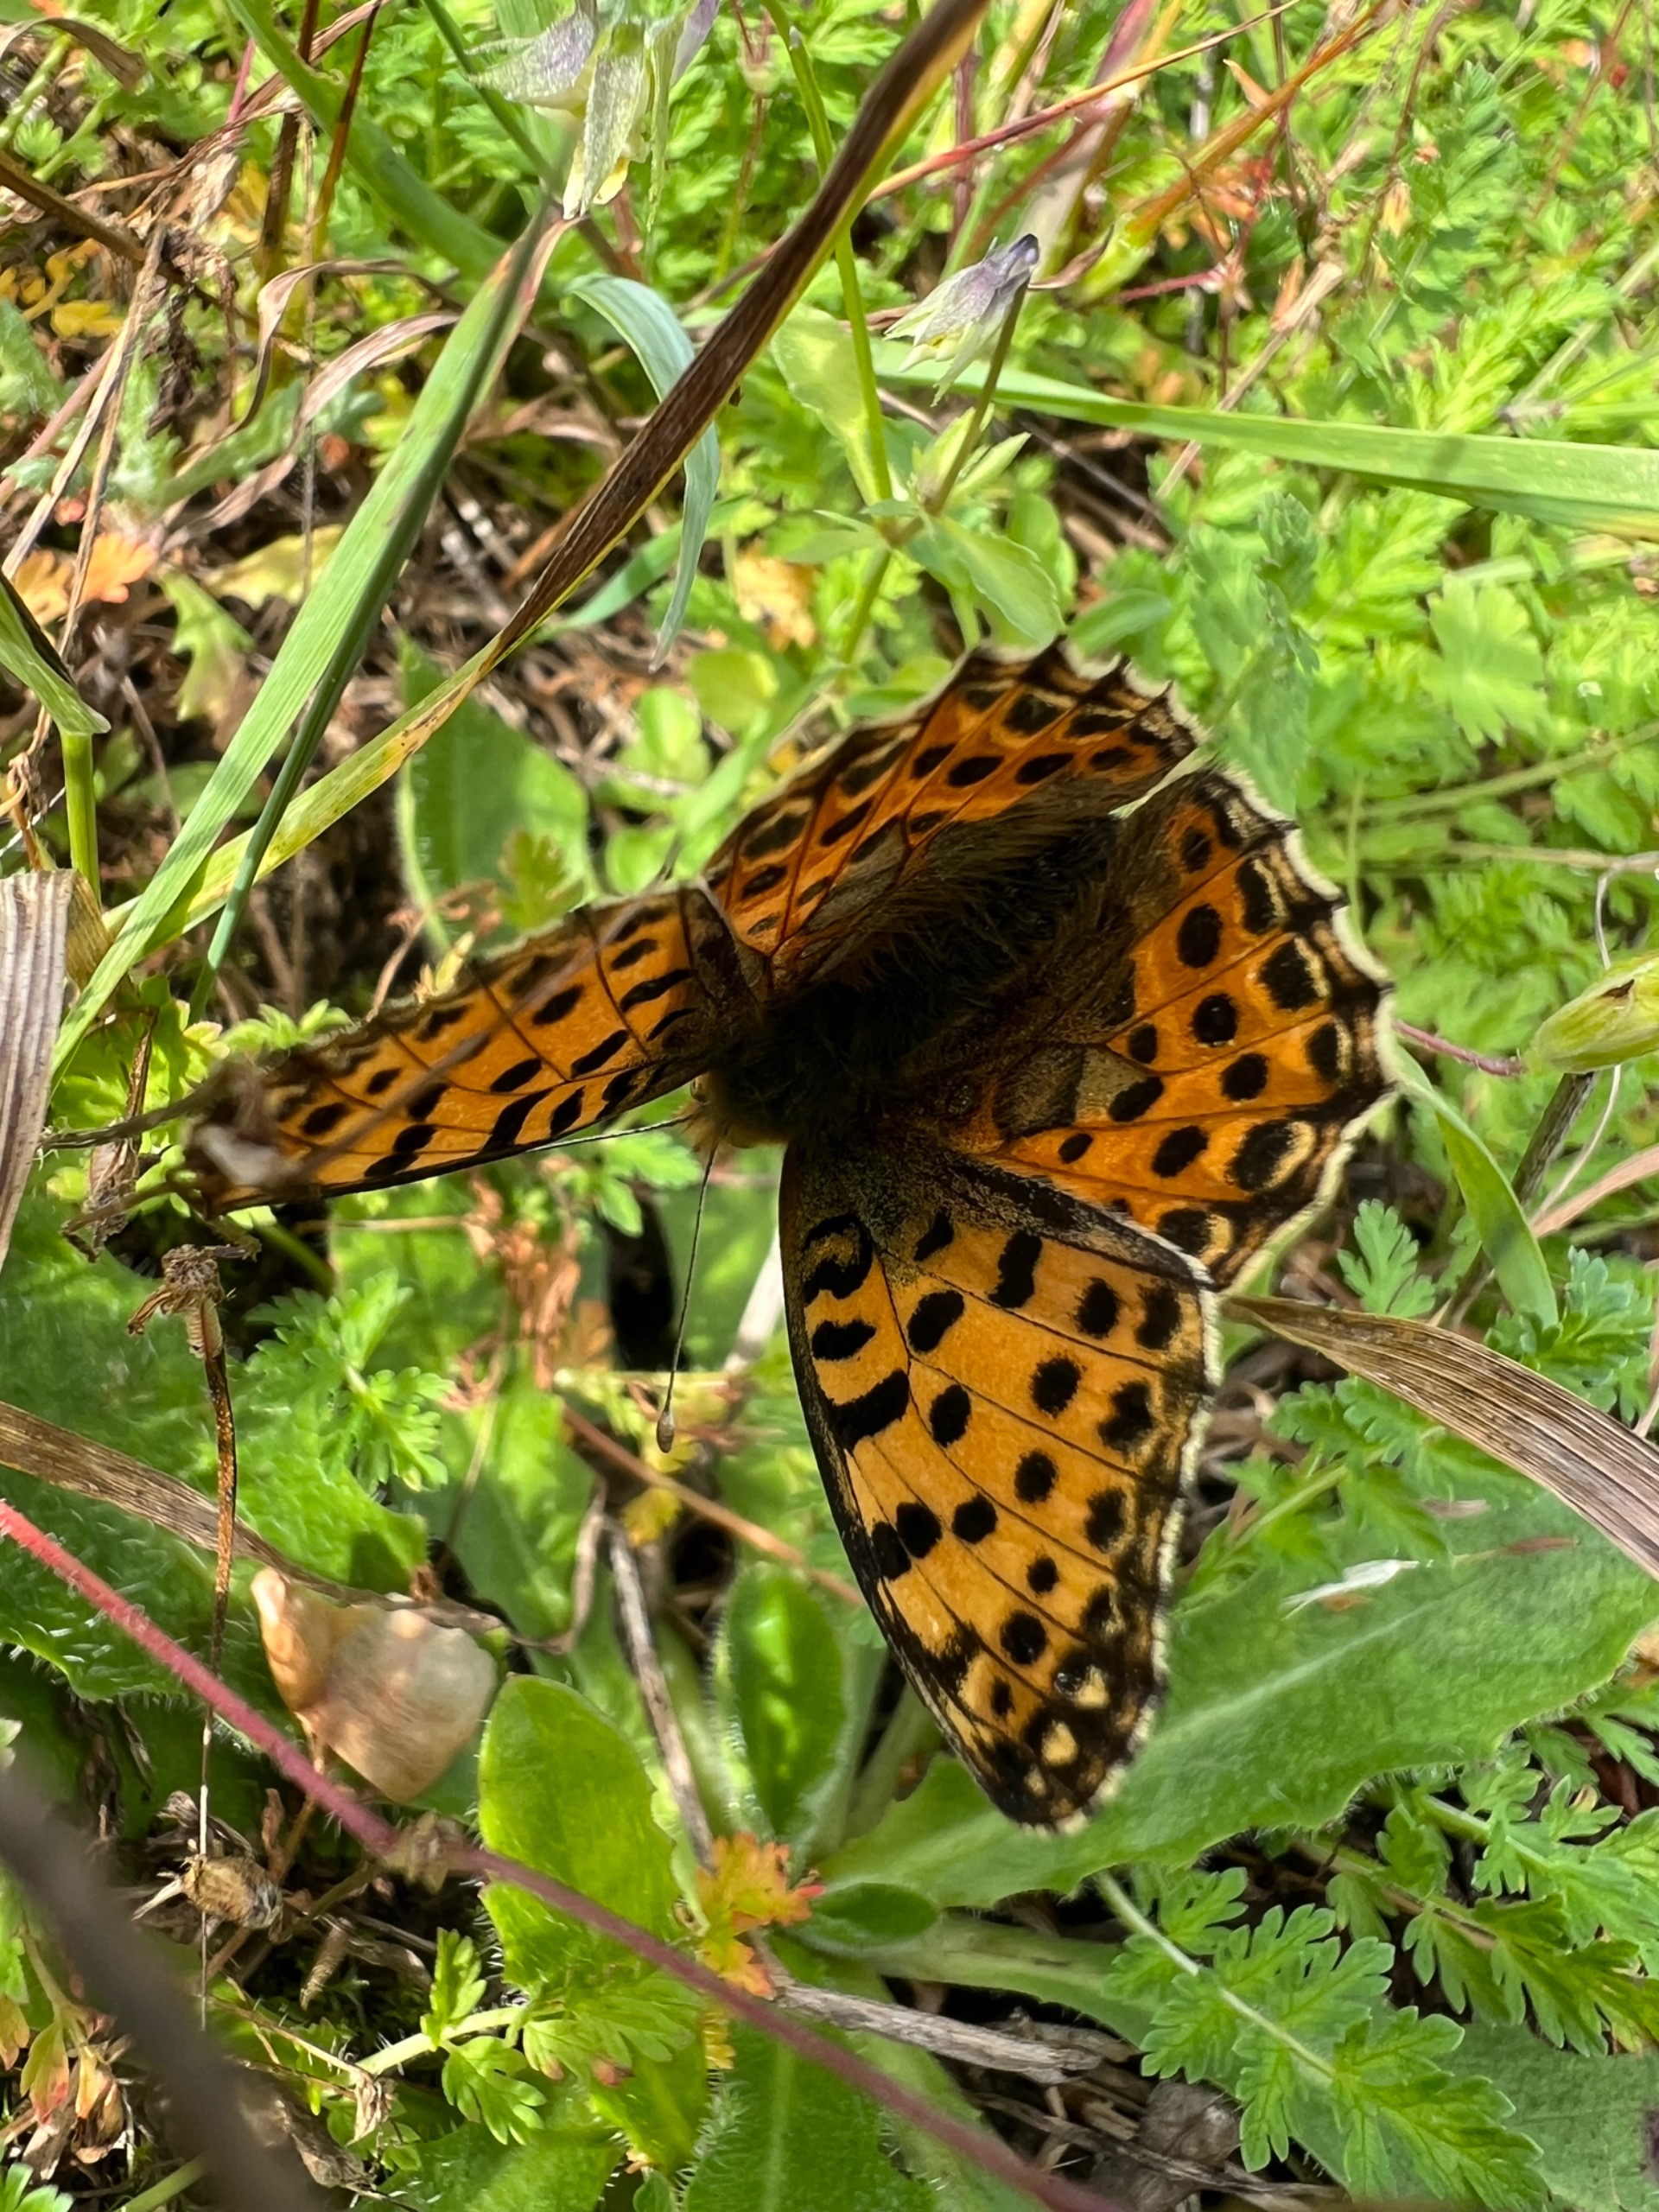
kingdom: Animalia
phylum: Arthropoda
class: Insecta
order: Lepidoptera
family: Nymphalidae
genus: Issoria
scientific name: Issoria lathonia
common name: Storplettet perlemorsommerfugl
